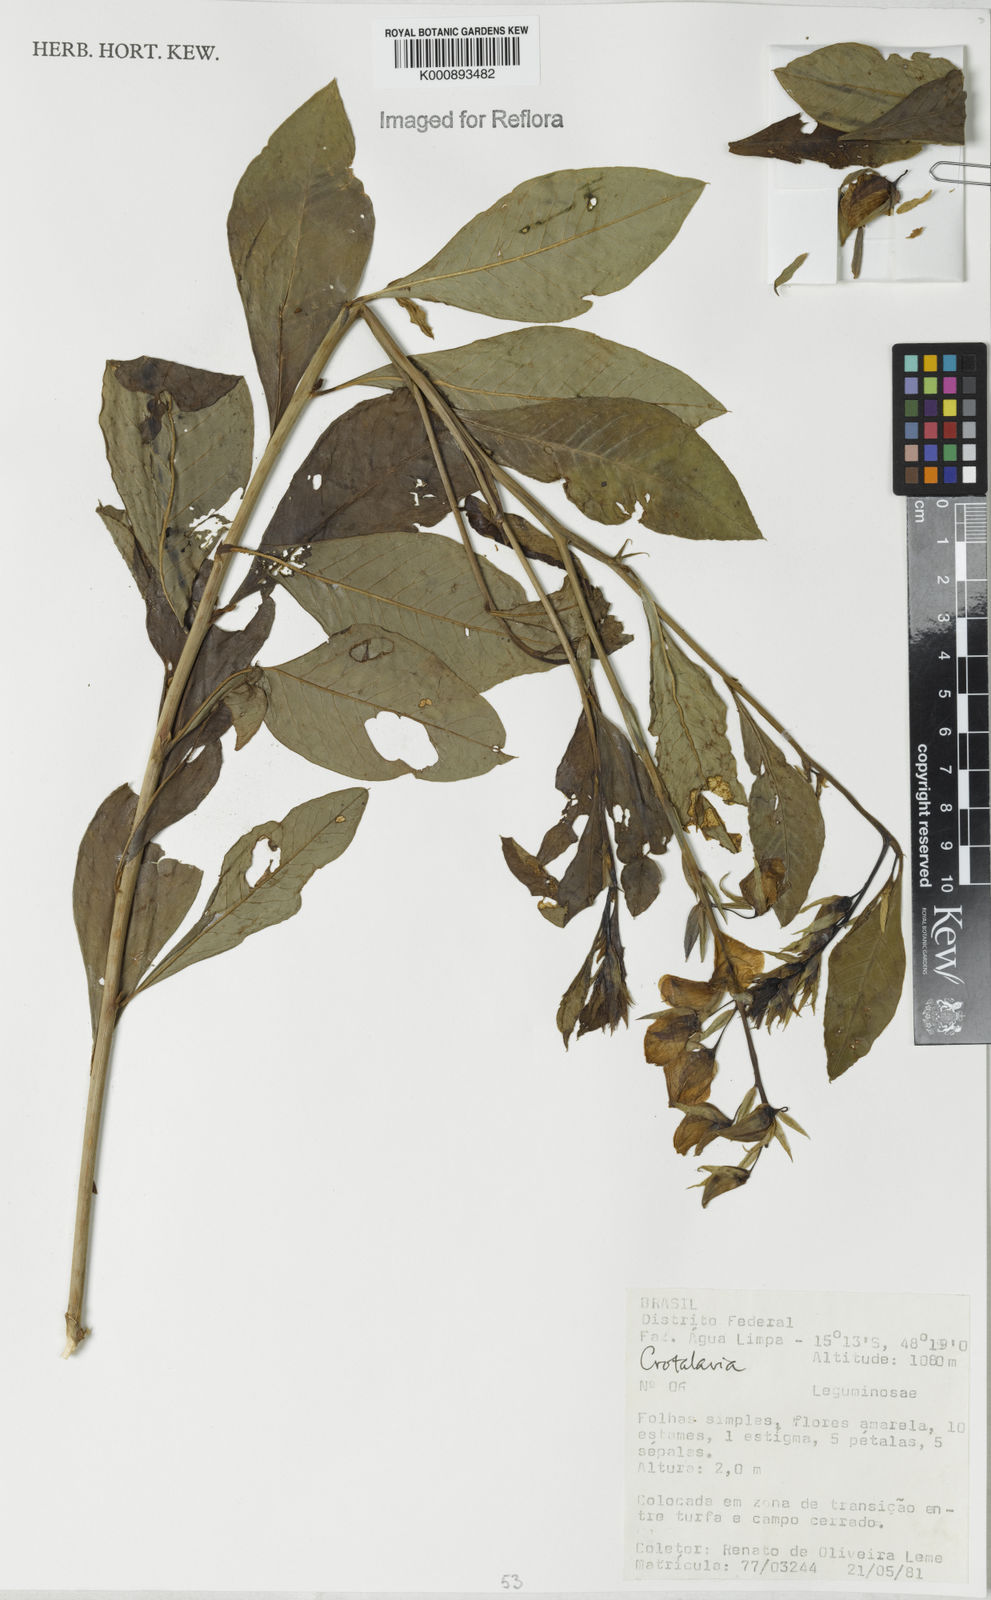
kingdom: Plantae
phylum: Tracheophyta
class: Magnoliopsida
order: Fabales
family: Fabaceae
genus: Crotalaria
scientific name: Crotalaria paulina
